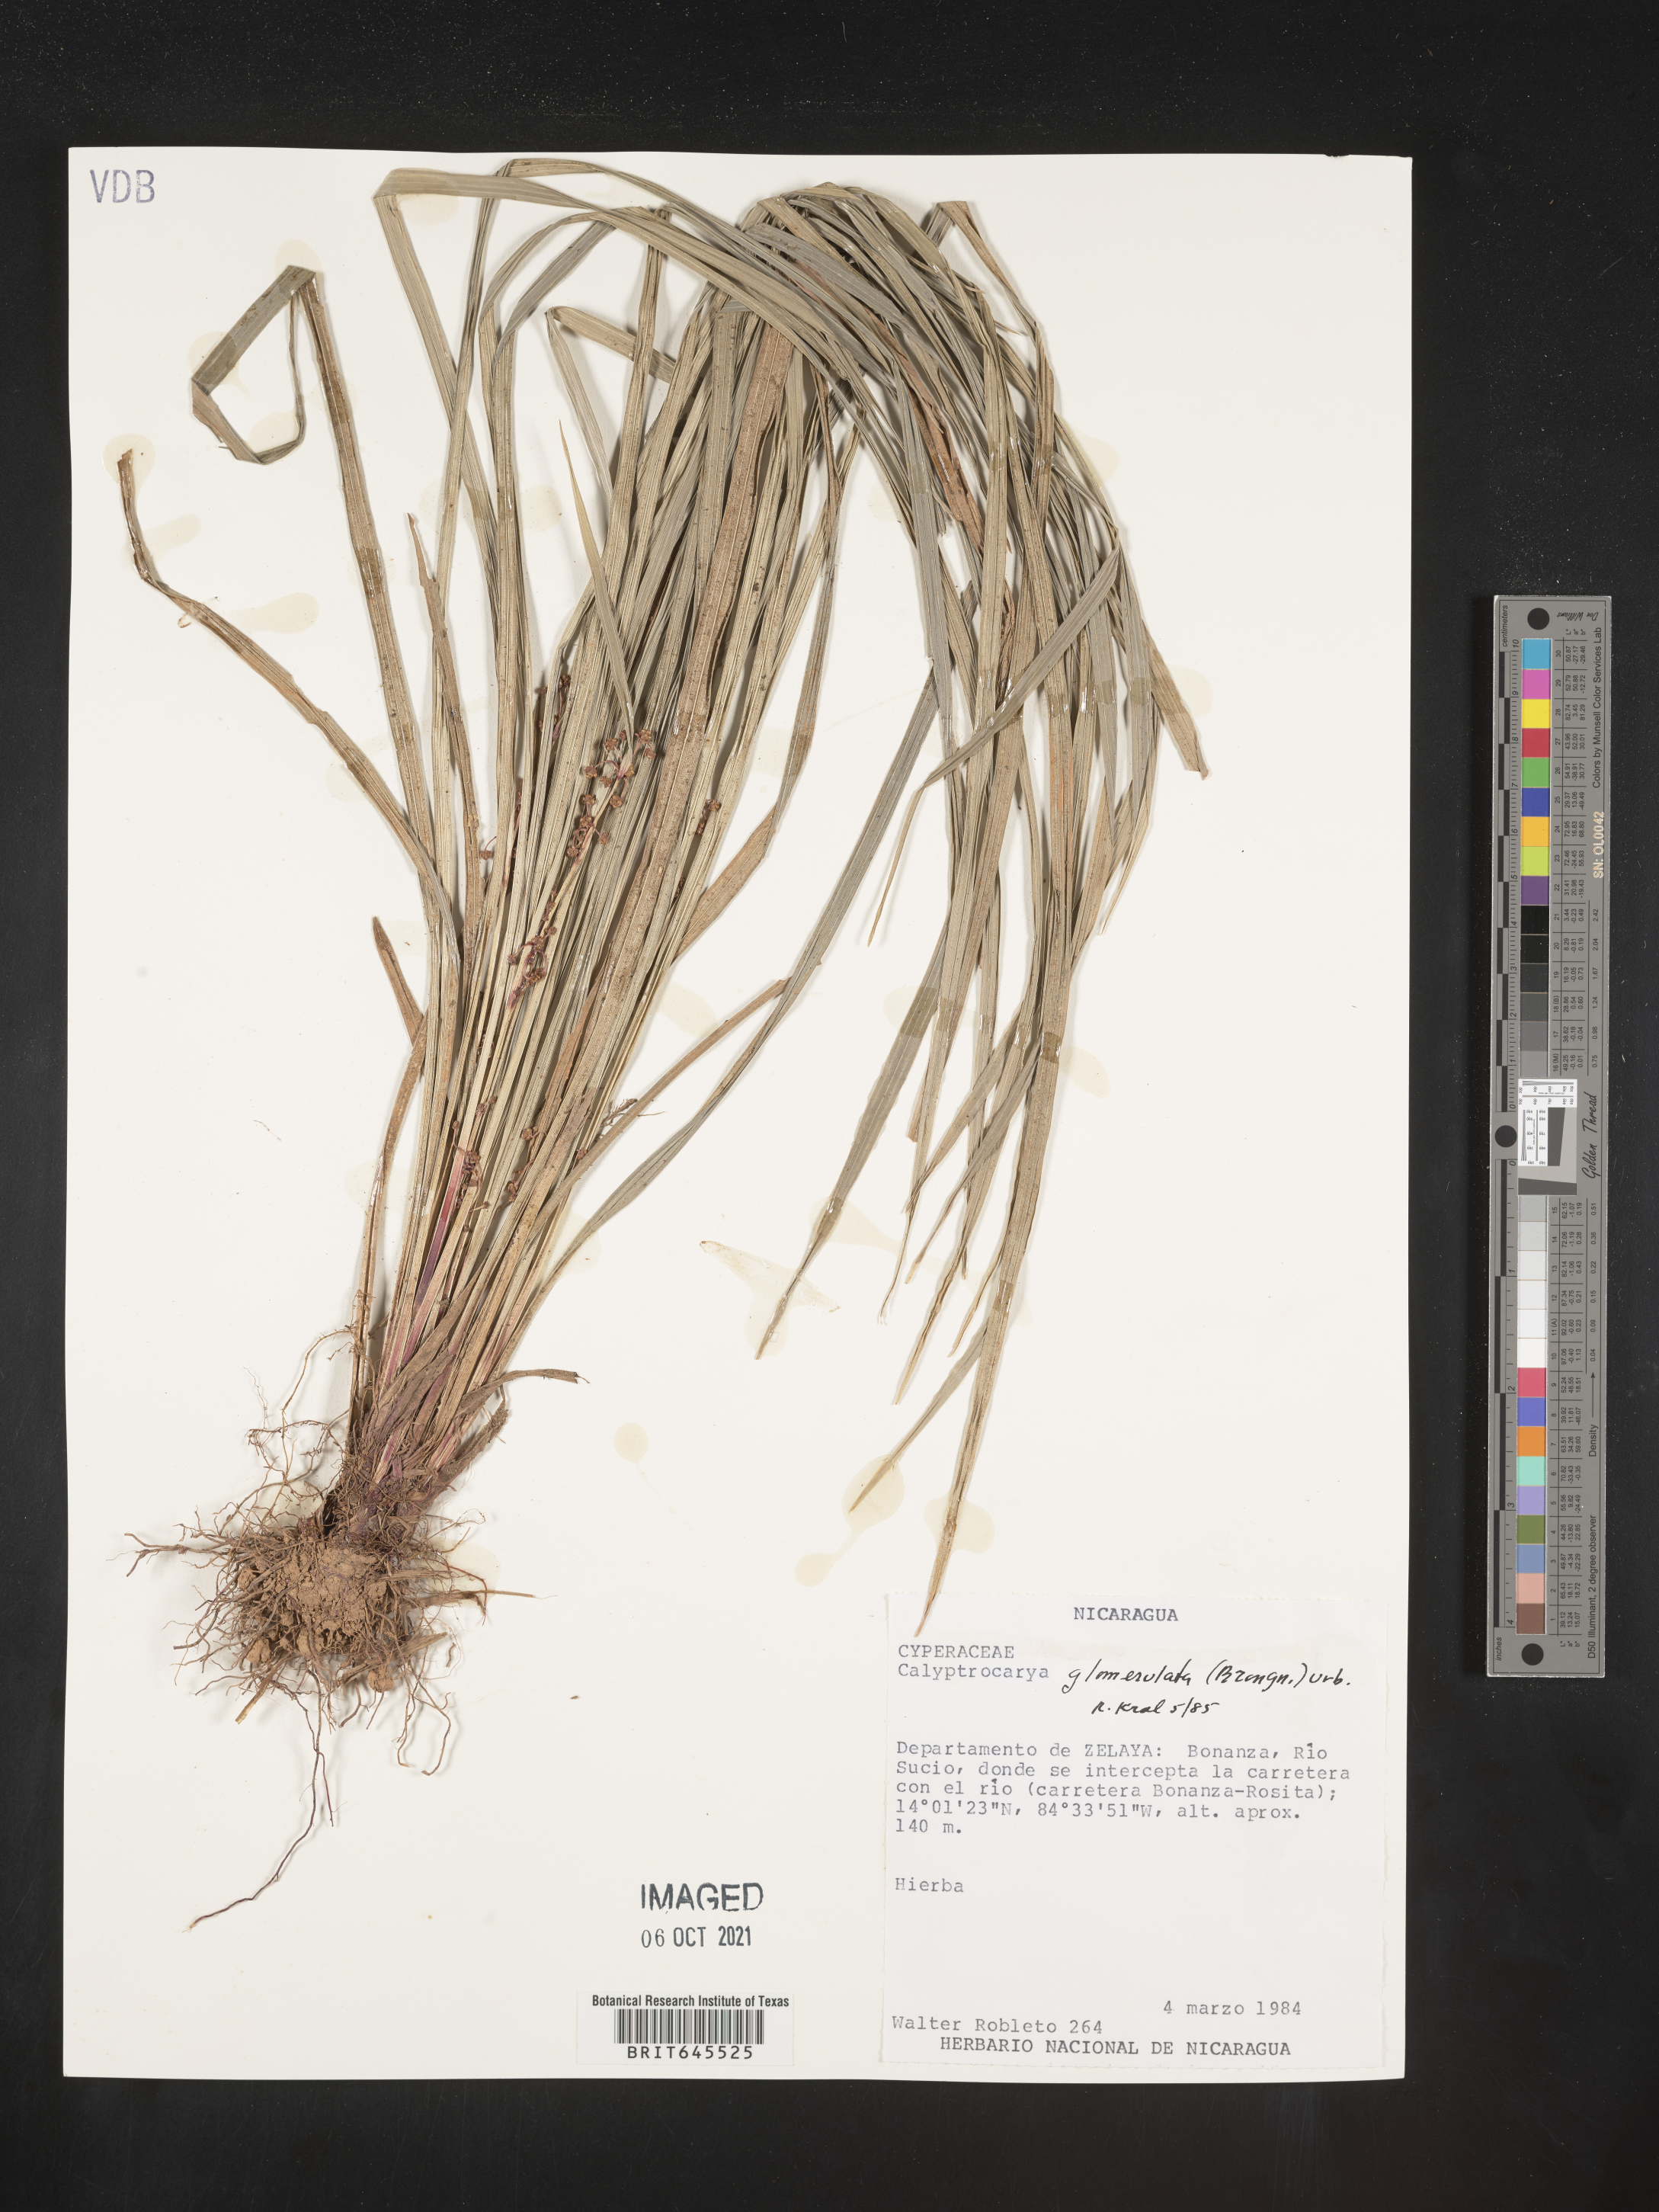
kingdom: Plantae
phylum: Tracheophyta
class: Liliopsida
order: Poales
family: Cyperaceae
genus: Calyptrocarya
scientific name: Calyptrocarya glomerulata
